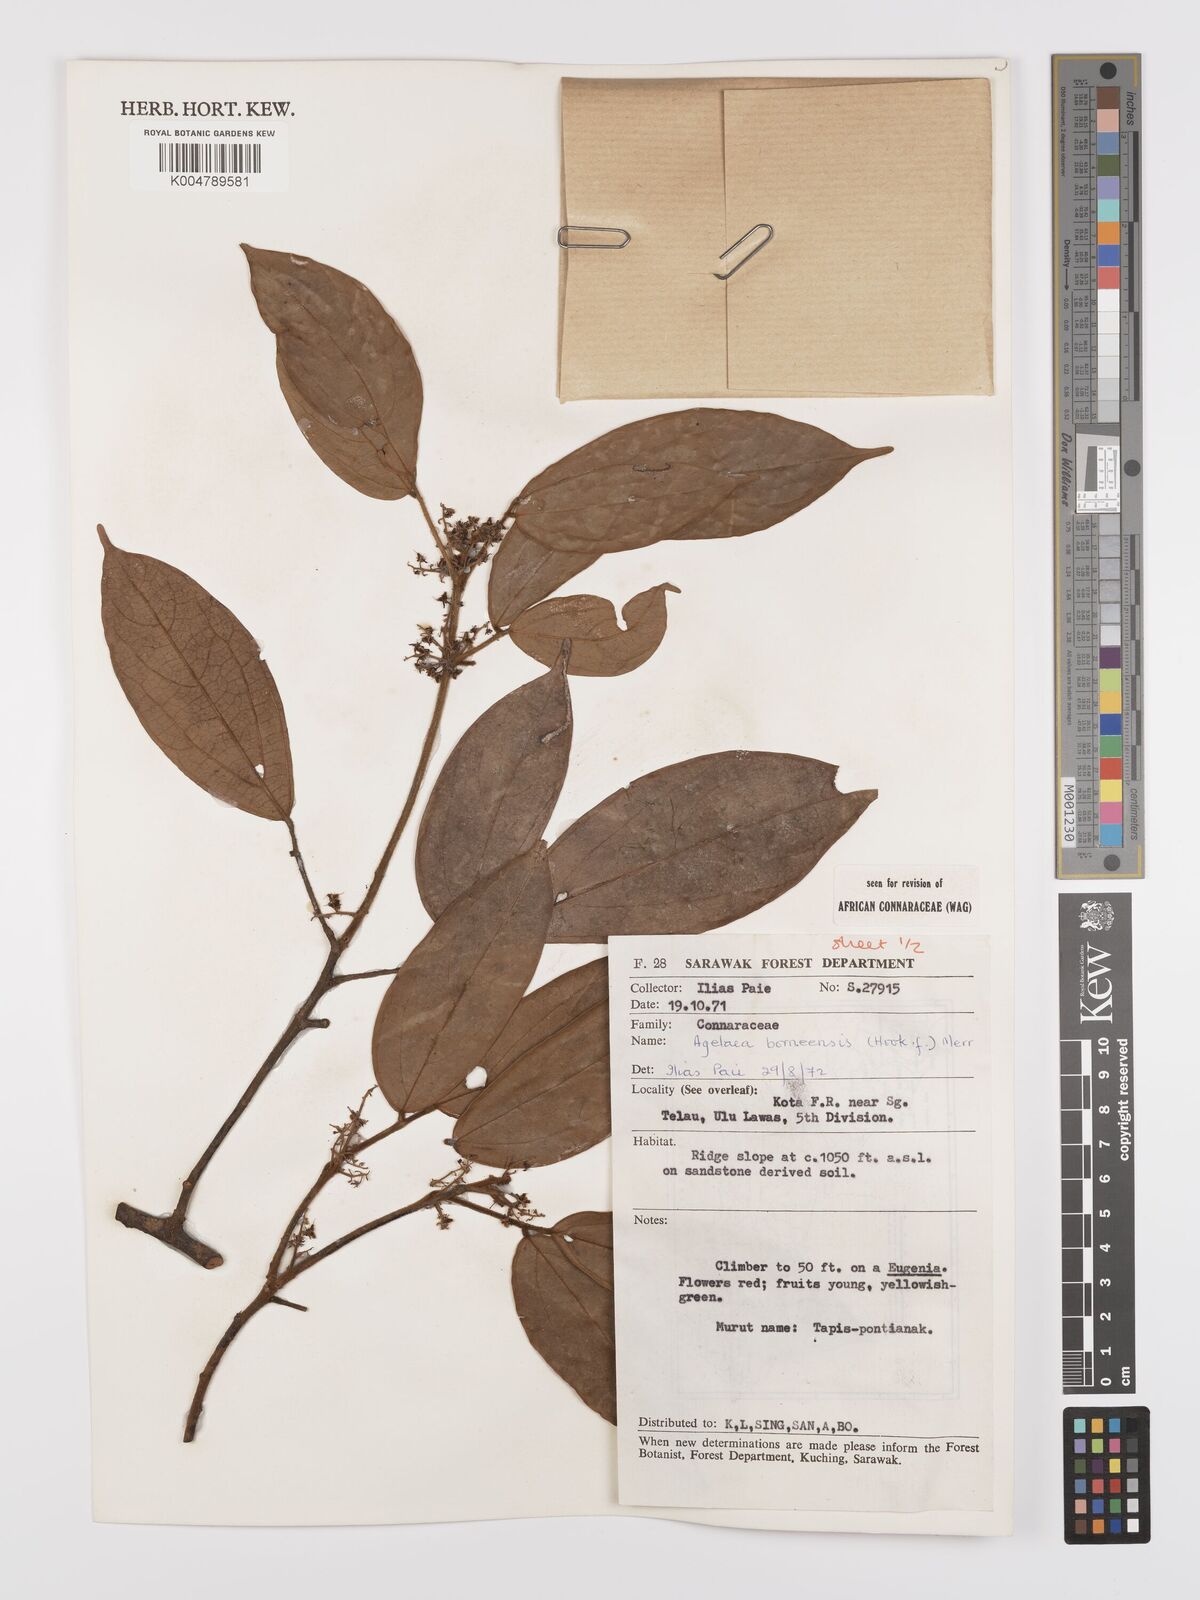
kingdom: Plantae
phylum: Tracheophyta
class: Magnoliopsida
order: Oxalidales
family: Connaraceae
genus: Agelaea
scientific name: Agelaea borneensis
